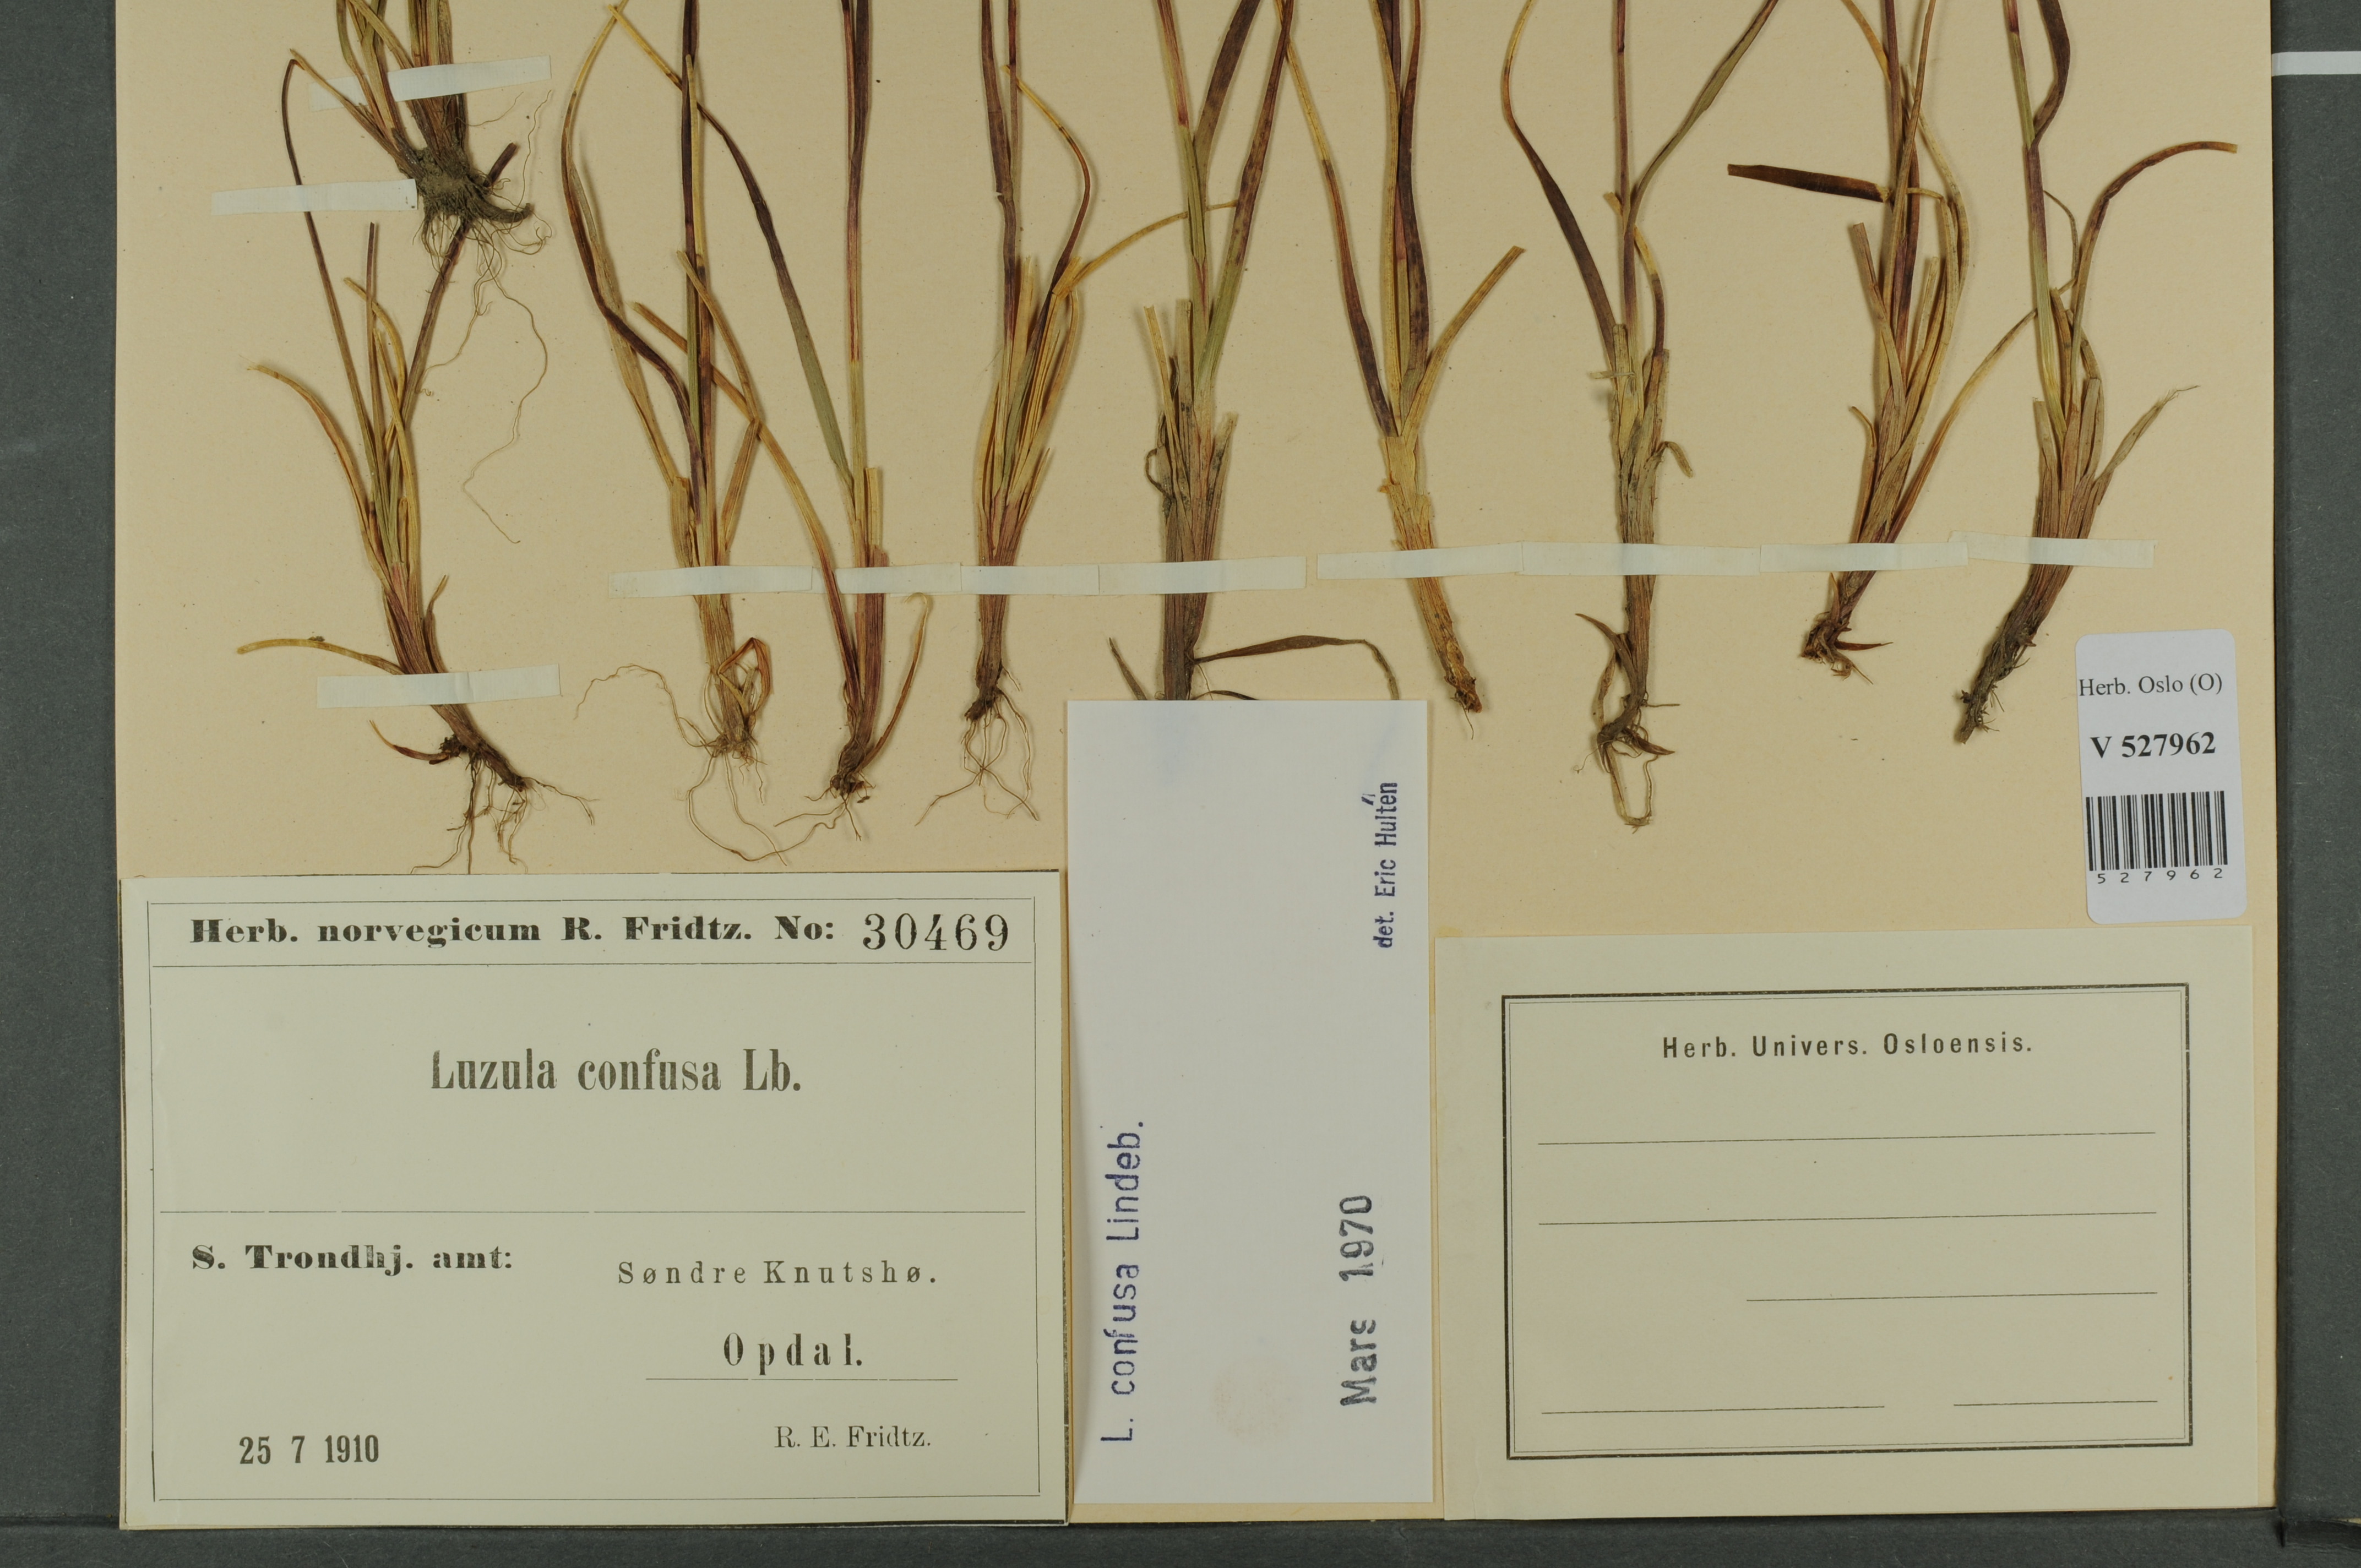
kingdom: Plantae
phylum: Tracheophyta
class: Liliopsida
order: Poales
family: Juncaceae
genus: Luzula
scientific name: Luzula confusa
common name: Northern wood rush
